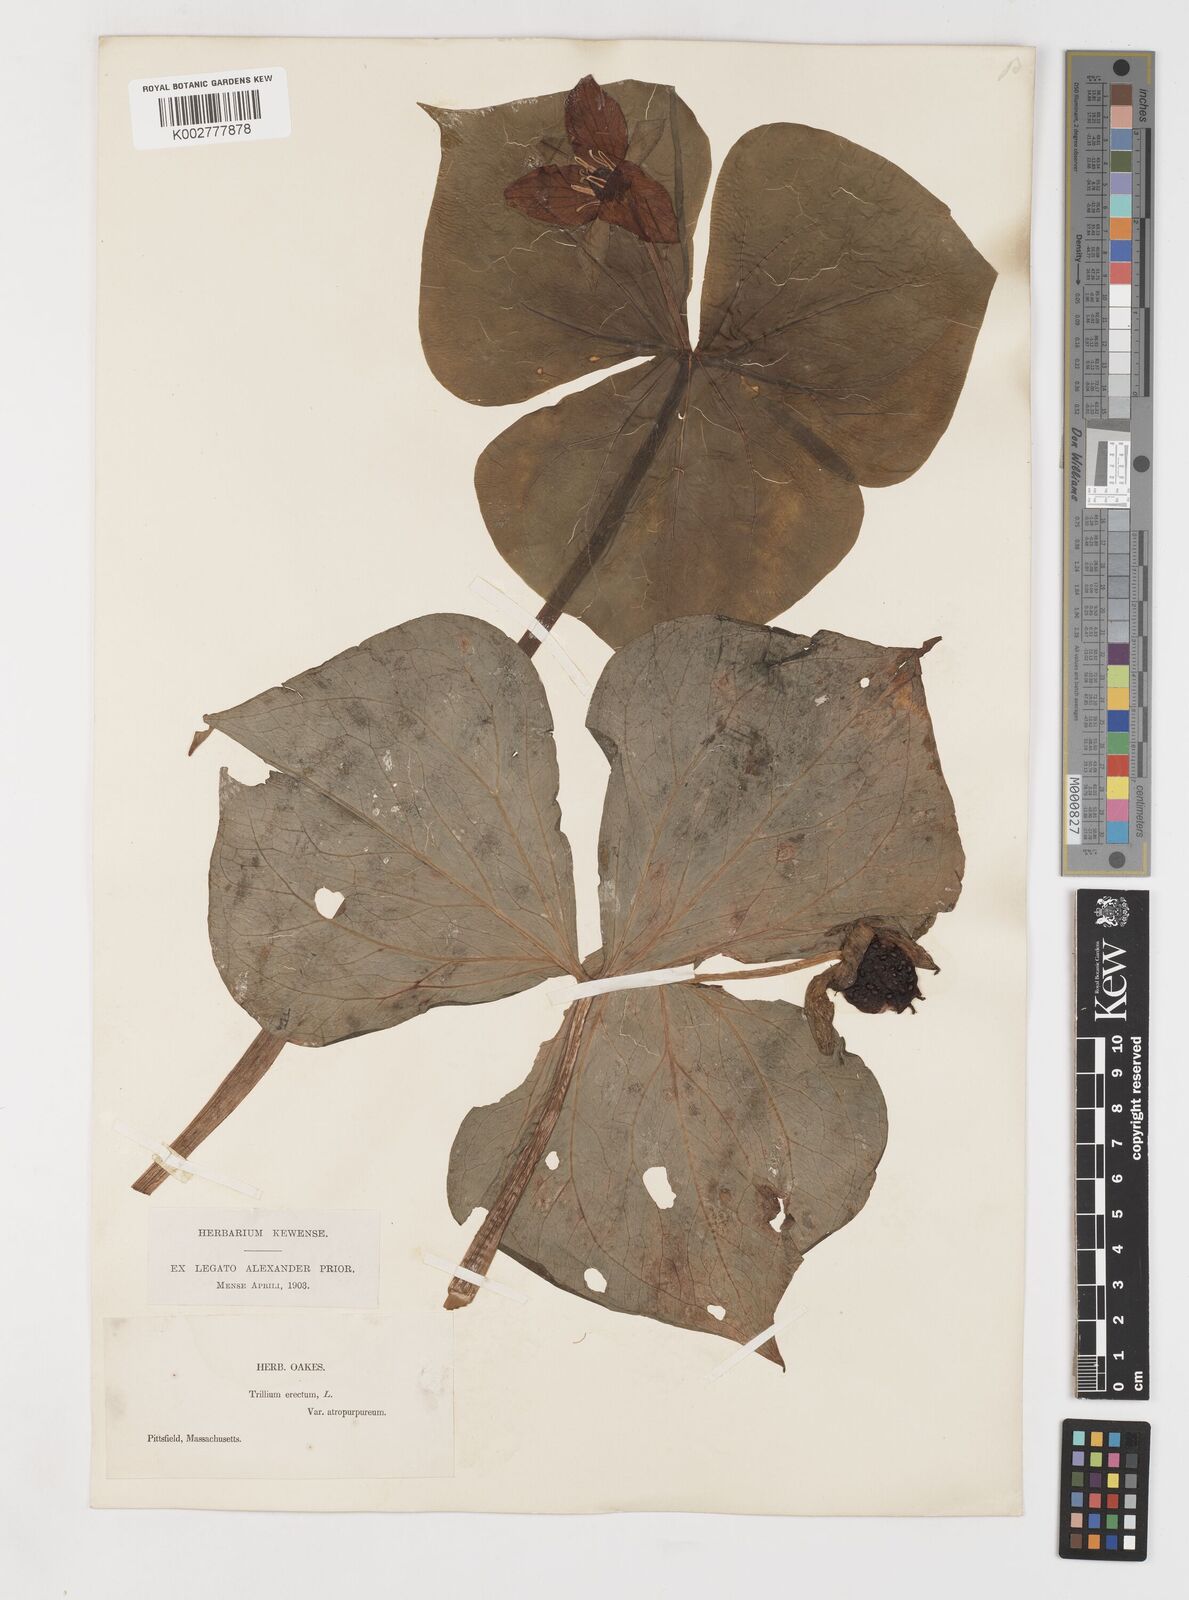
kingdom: Plantae
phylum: Tracheophyta
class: Liliopsida
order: Liliales
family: Melanthiaceae
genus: Trillium
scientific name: Trillium erectum
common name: Purple trillium
